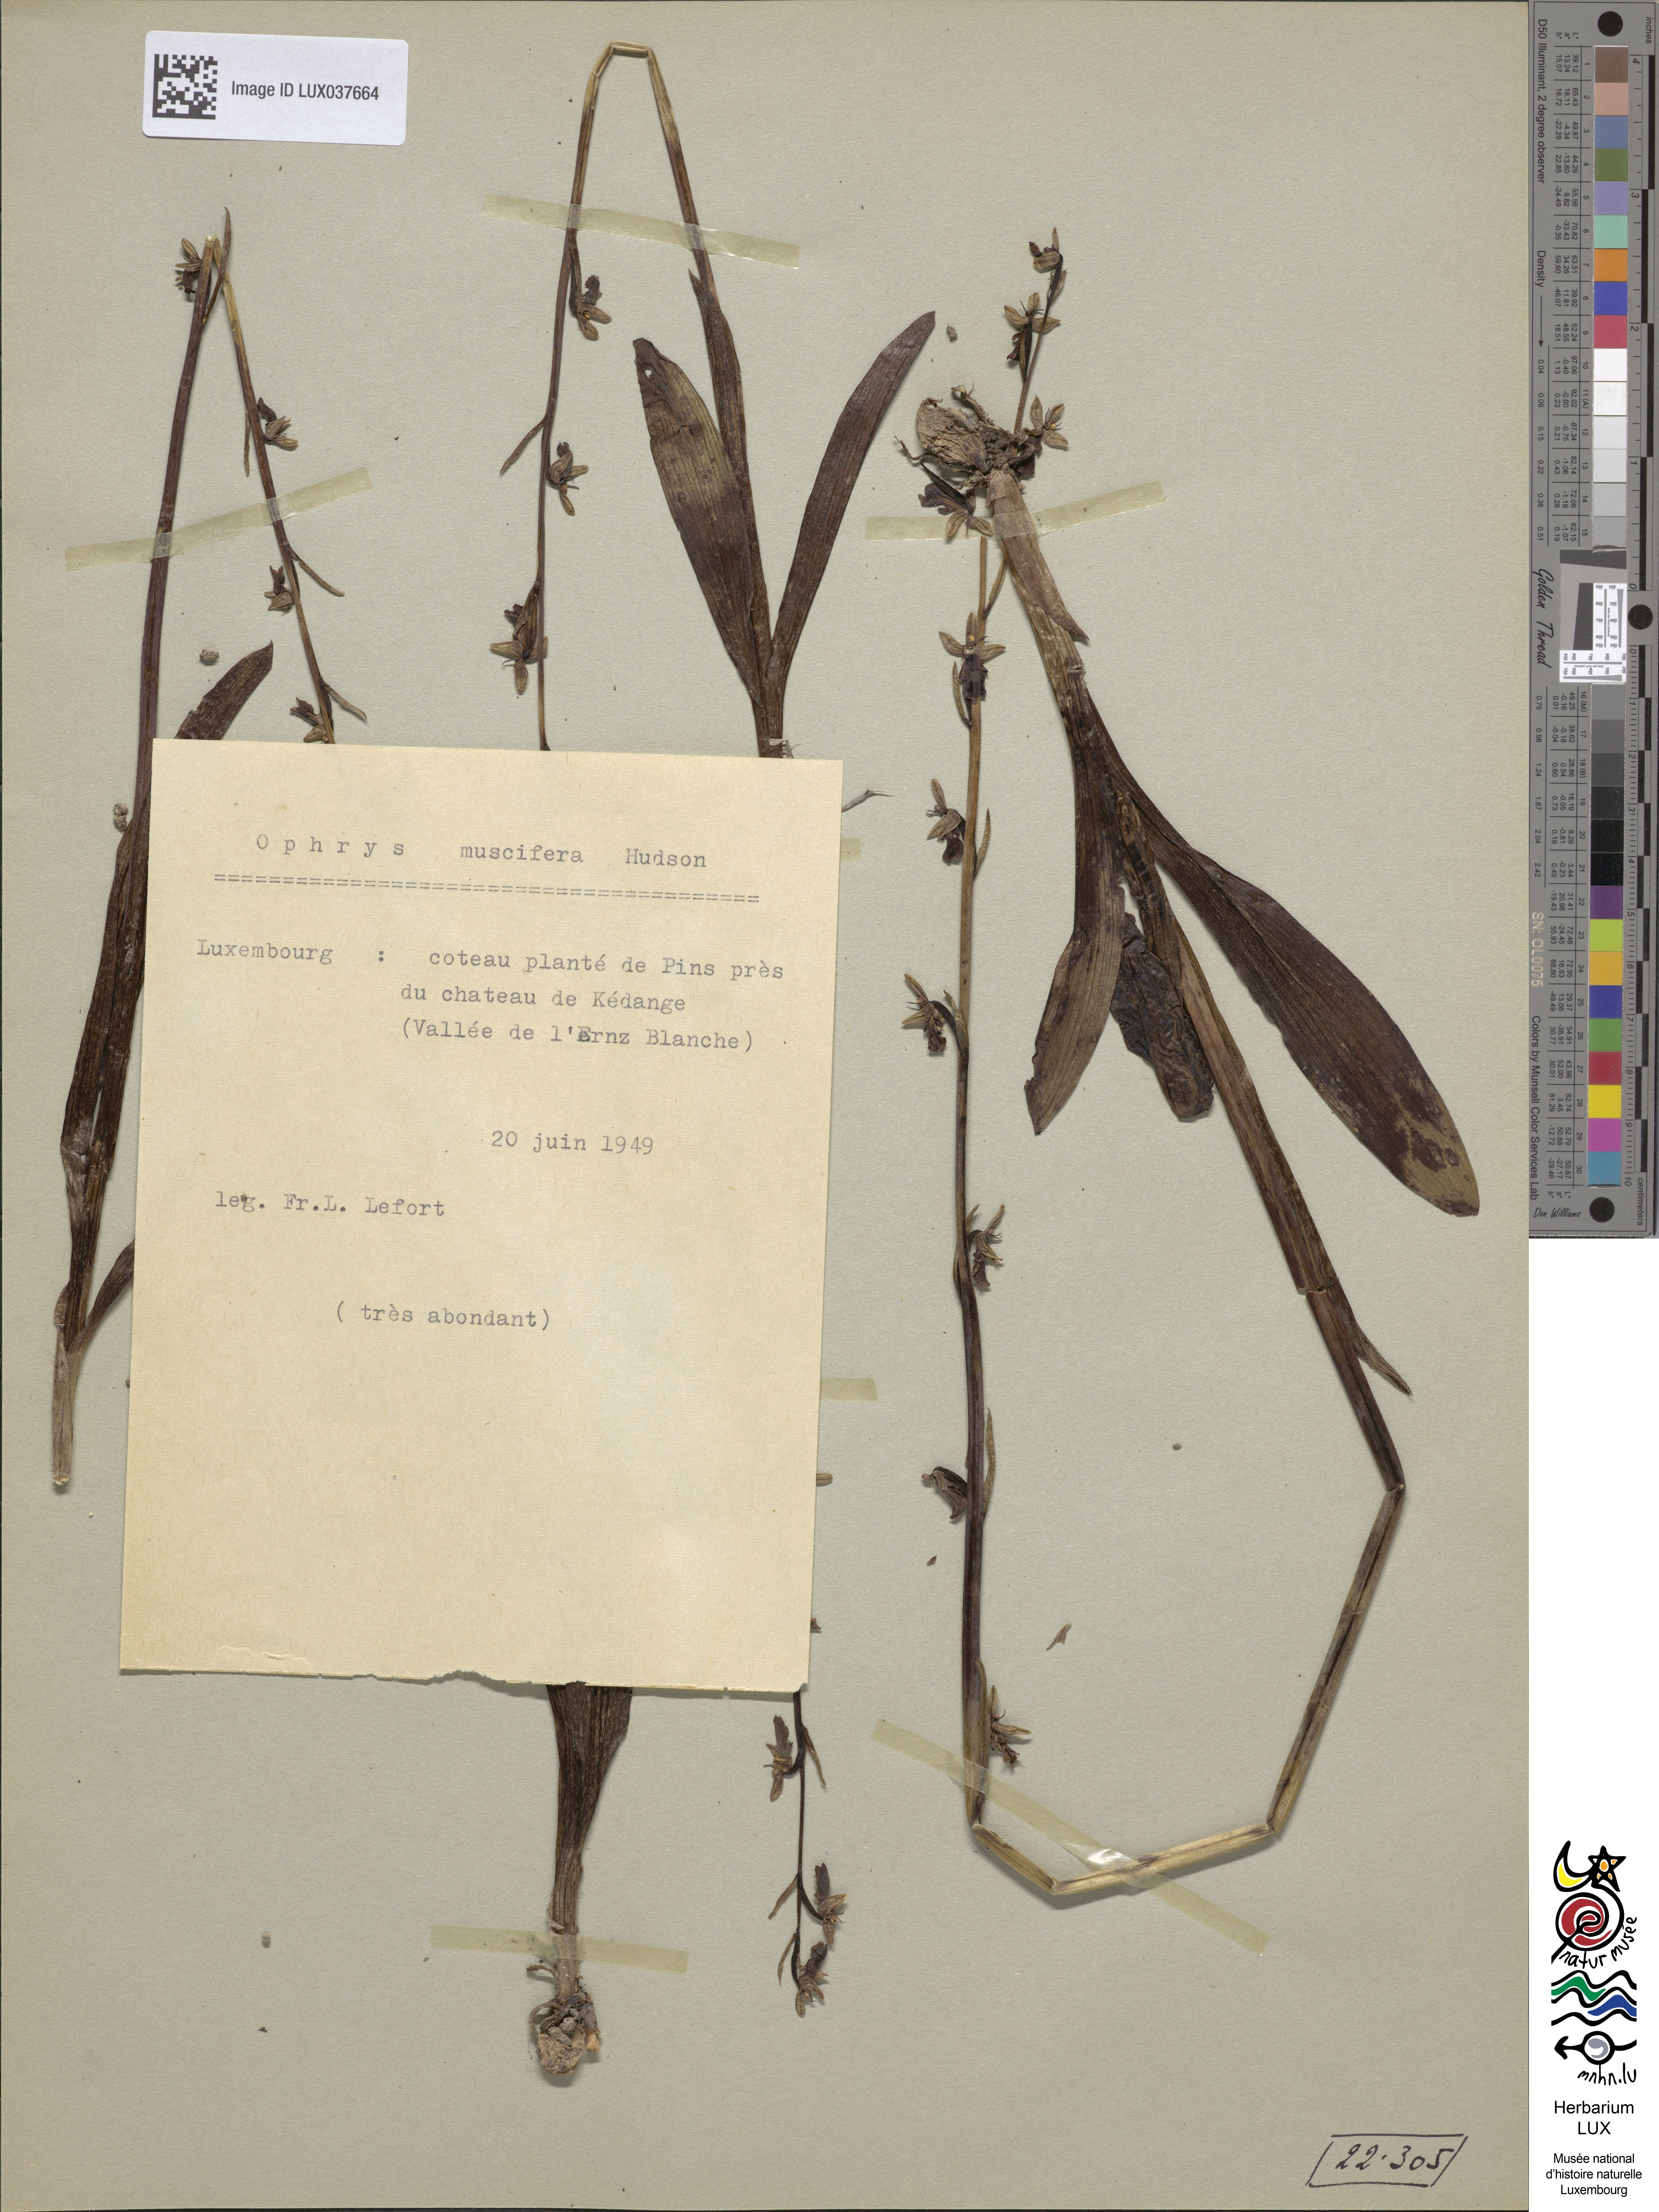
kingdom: Plantae
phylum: Tracheophyta
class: Liliopsida
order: Asparagales
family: Orchidaceae
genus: Ophrys
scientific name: Ophrys insectifera
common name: Fly orchid
